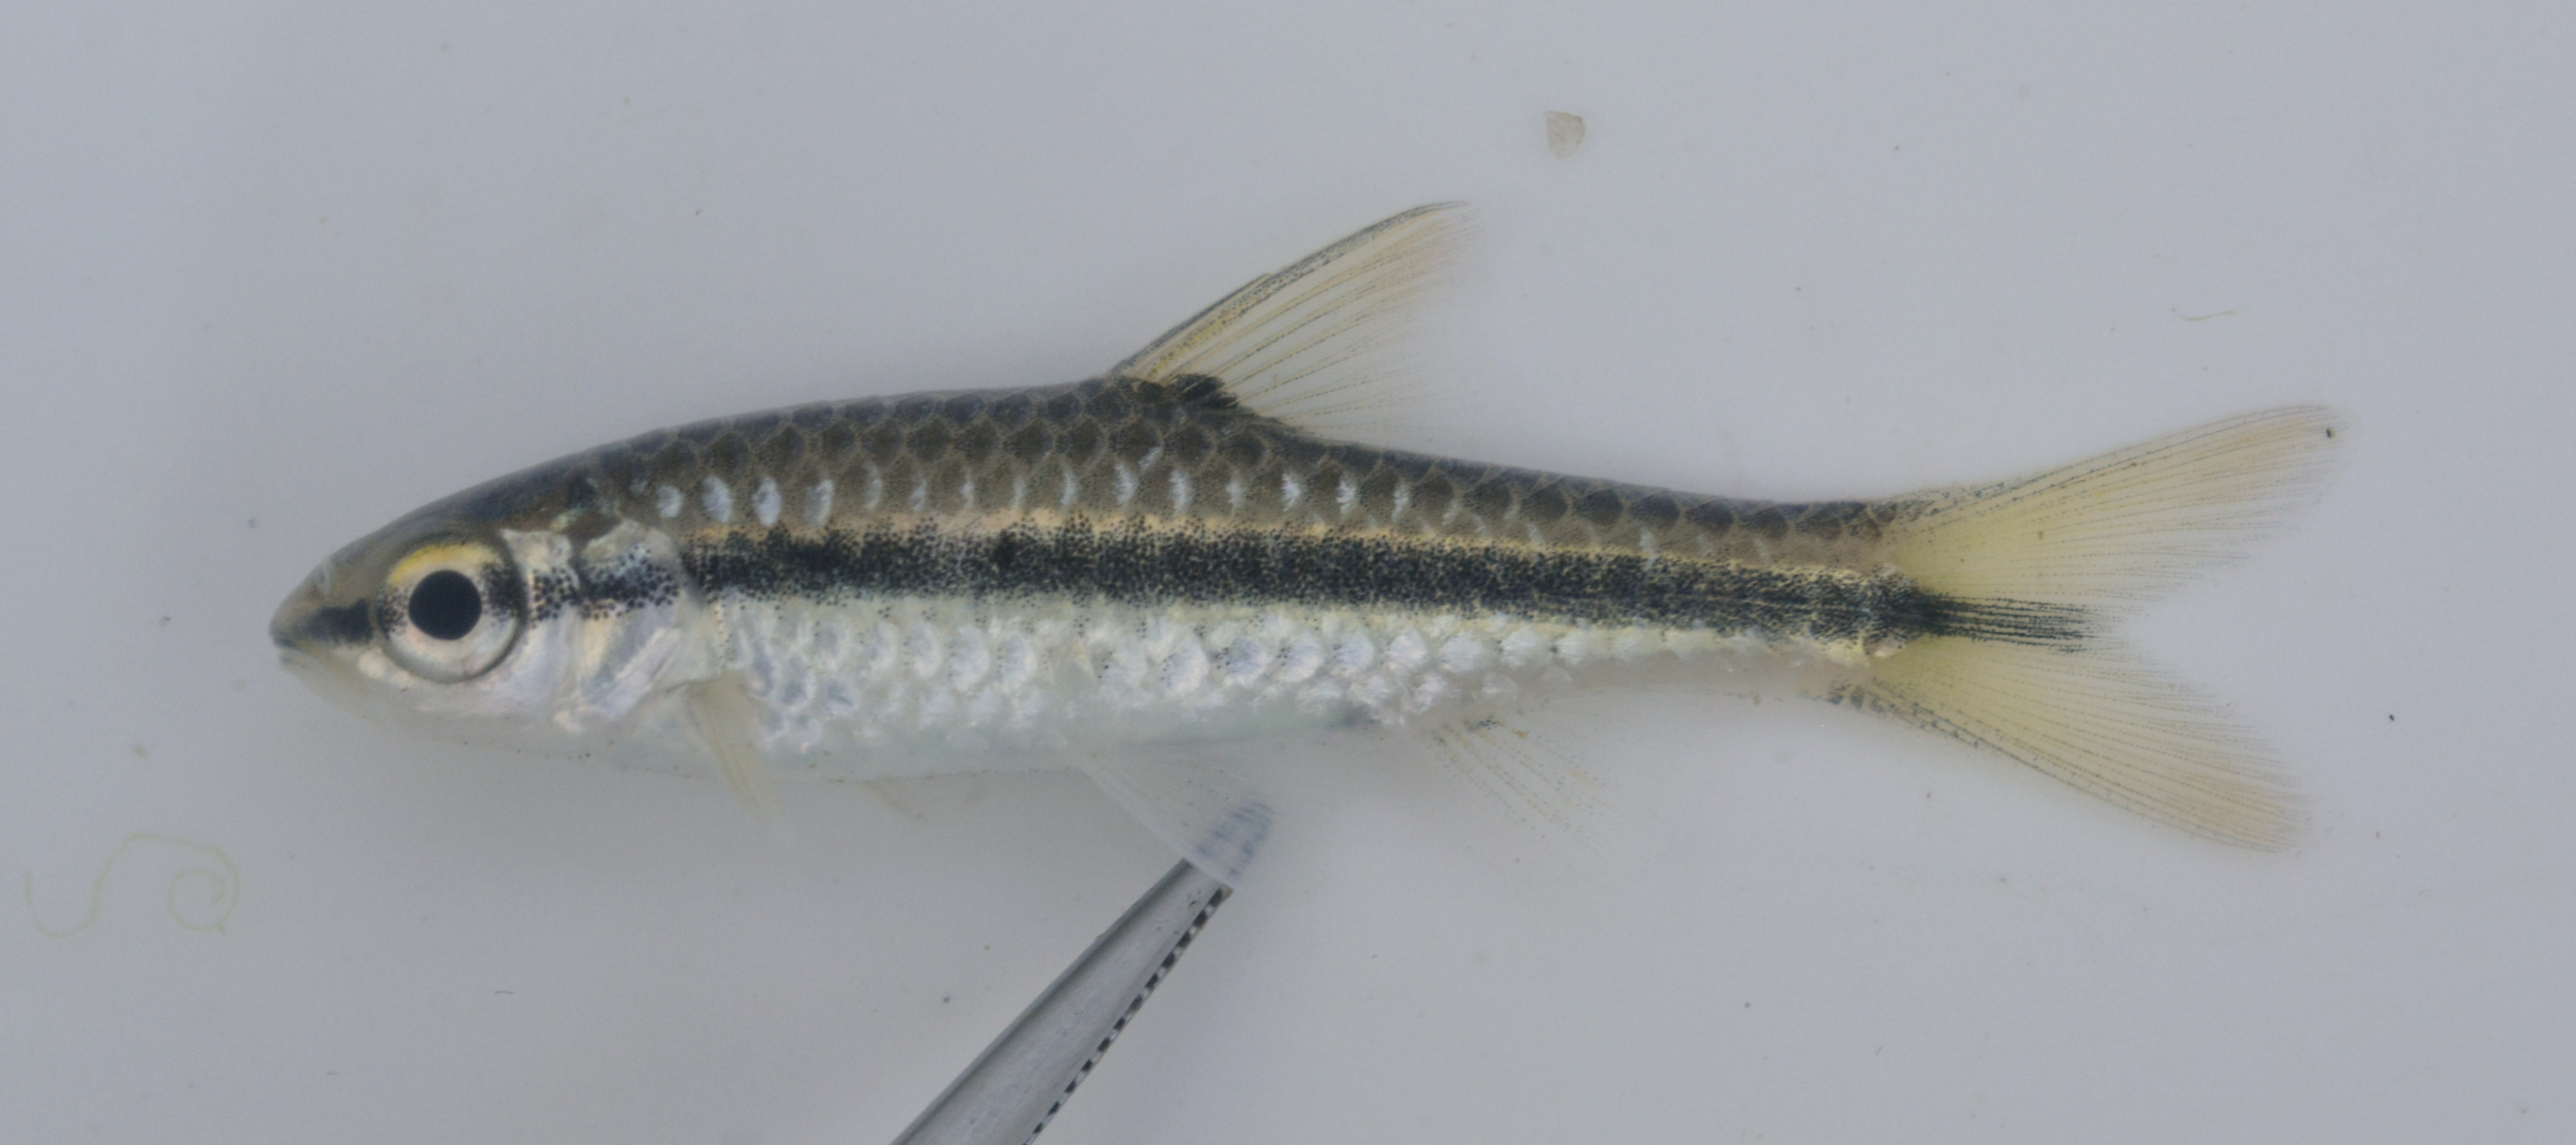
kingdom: Animalia
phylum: Chordata
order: Cypriniformes
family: Cyprinidae
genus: Enteromius
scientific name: Enteromius
